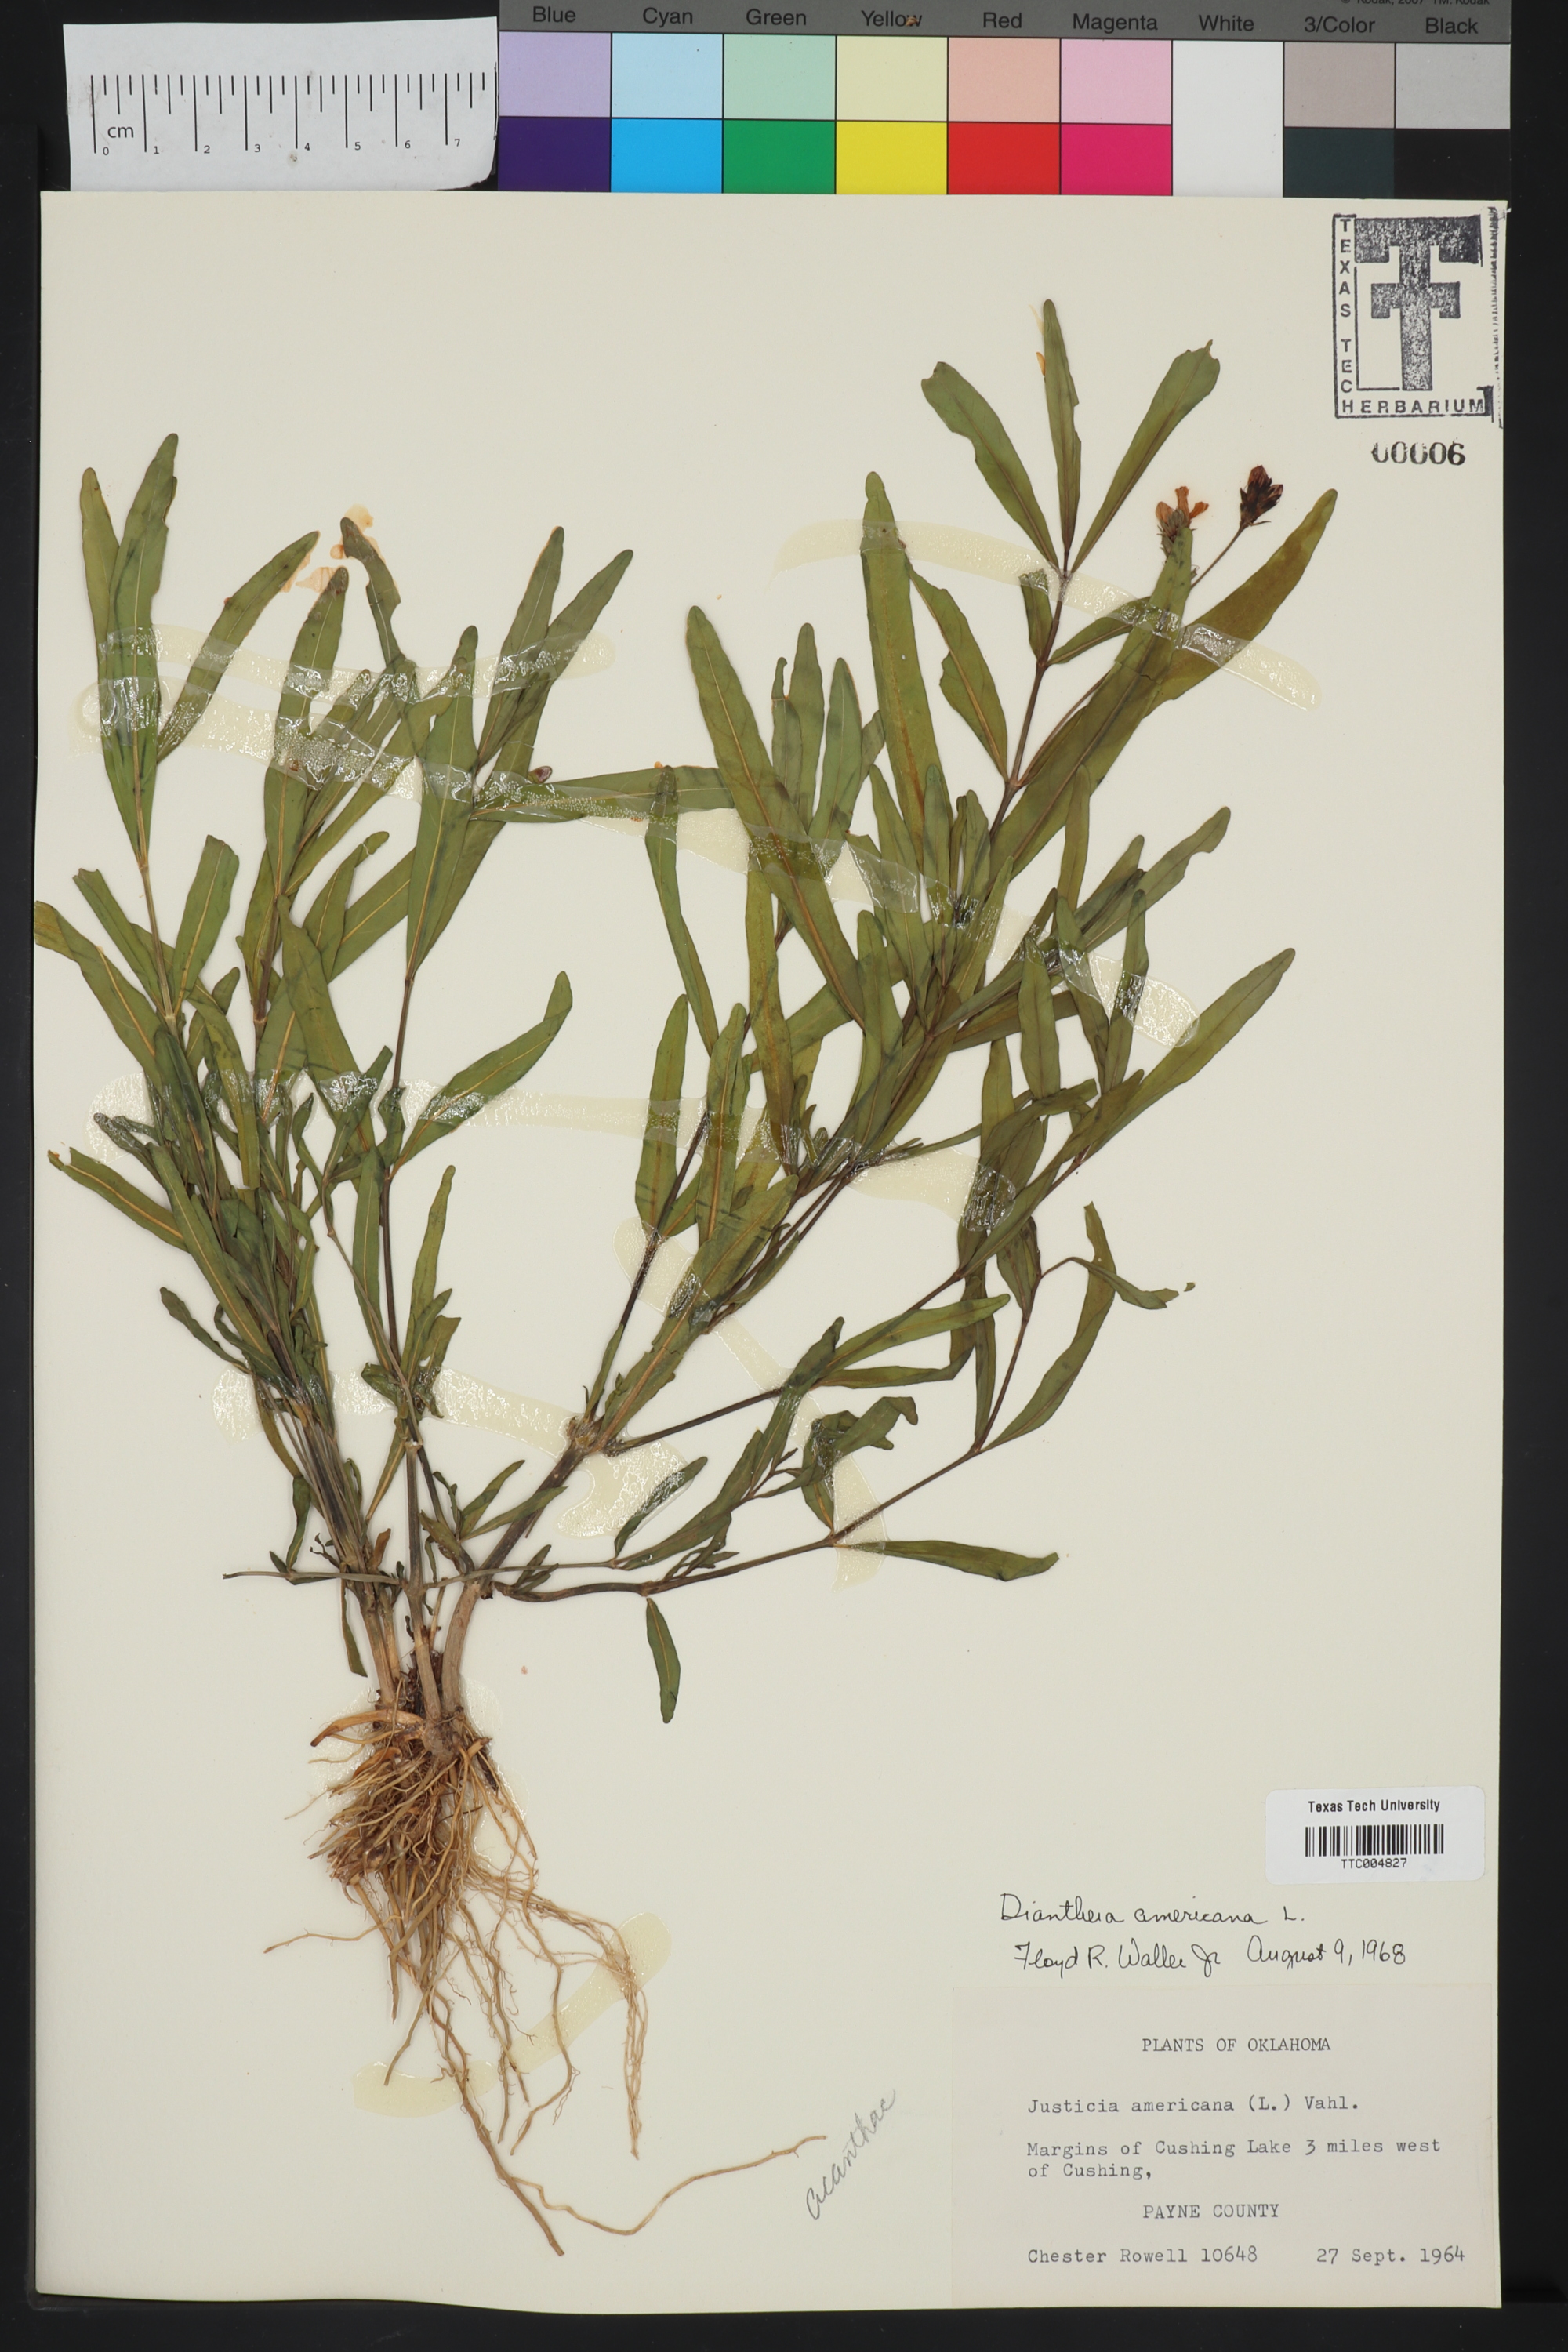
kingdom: Plantae
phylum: Tracheophyta
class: Magnoliopsida
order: Lamiales
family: Acanthaceae
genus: Rostellularia
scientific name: Rostellularia procumbens
